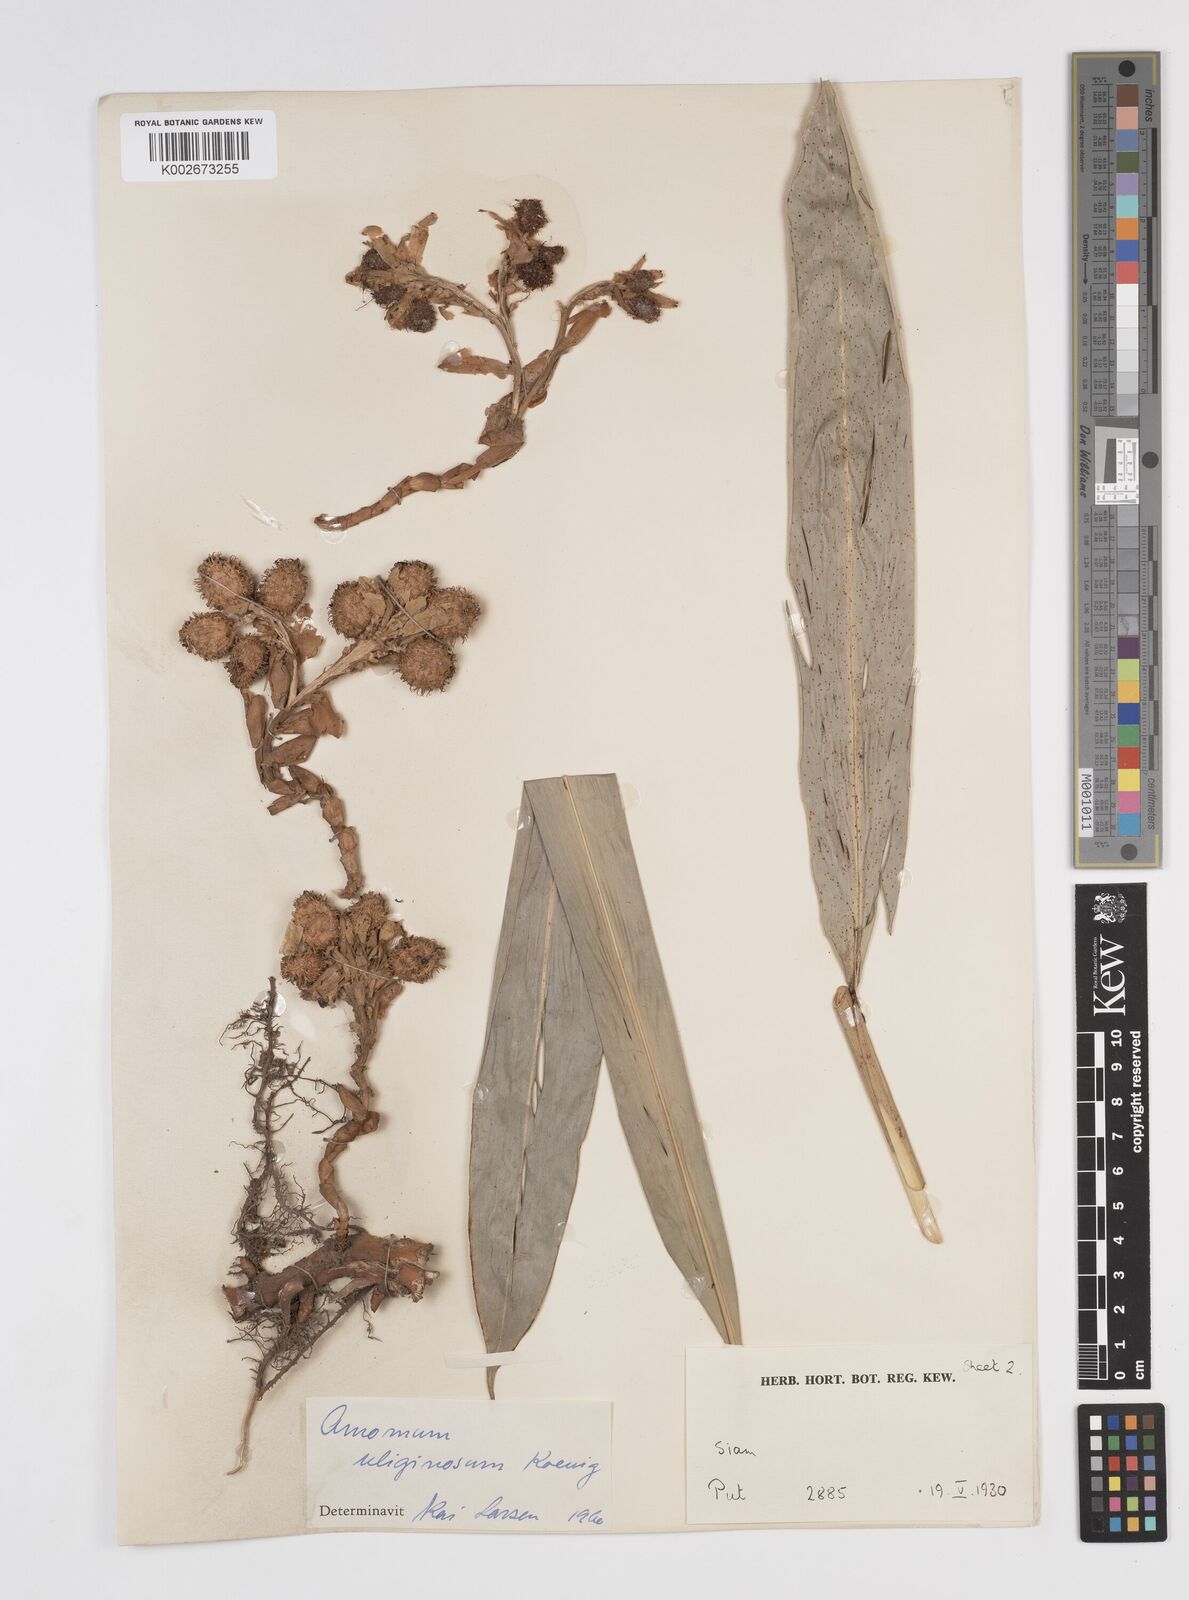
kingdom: Plantae
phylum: Tracheophyta
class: Liliopsida
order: Zingiberales
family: Zingiberaceae
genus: Wurfbainia
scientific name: Wurfbainia uliginosa
